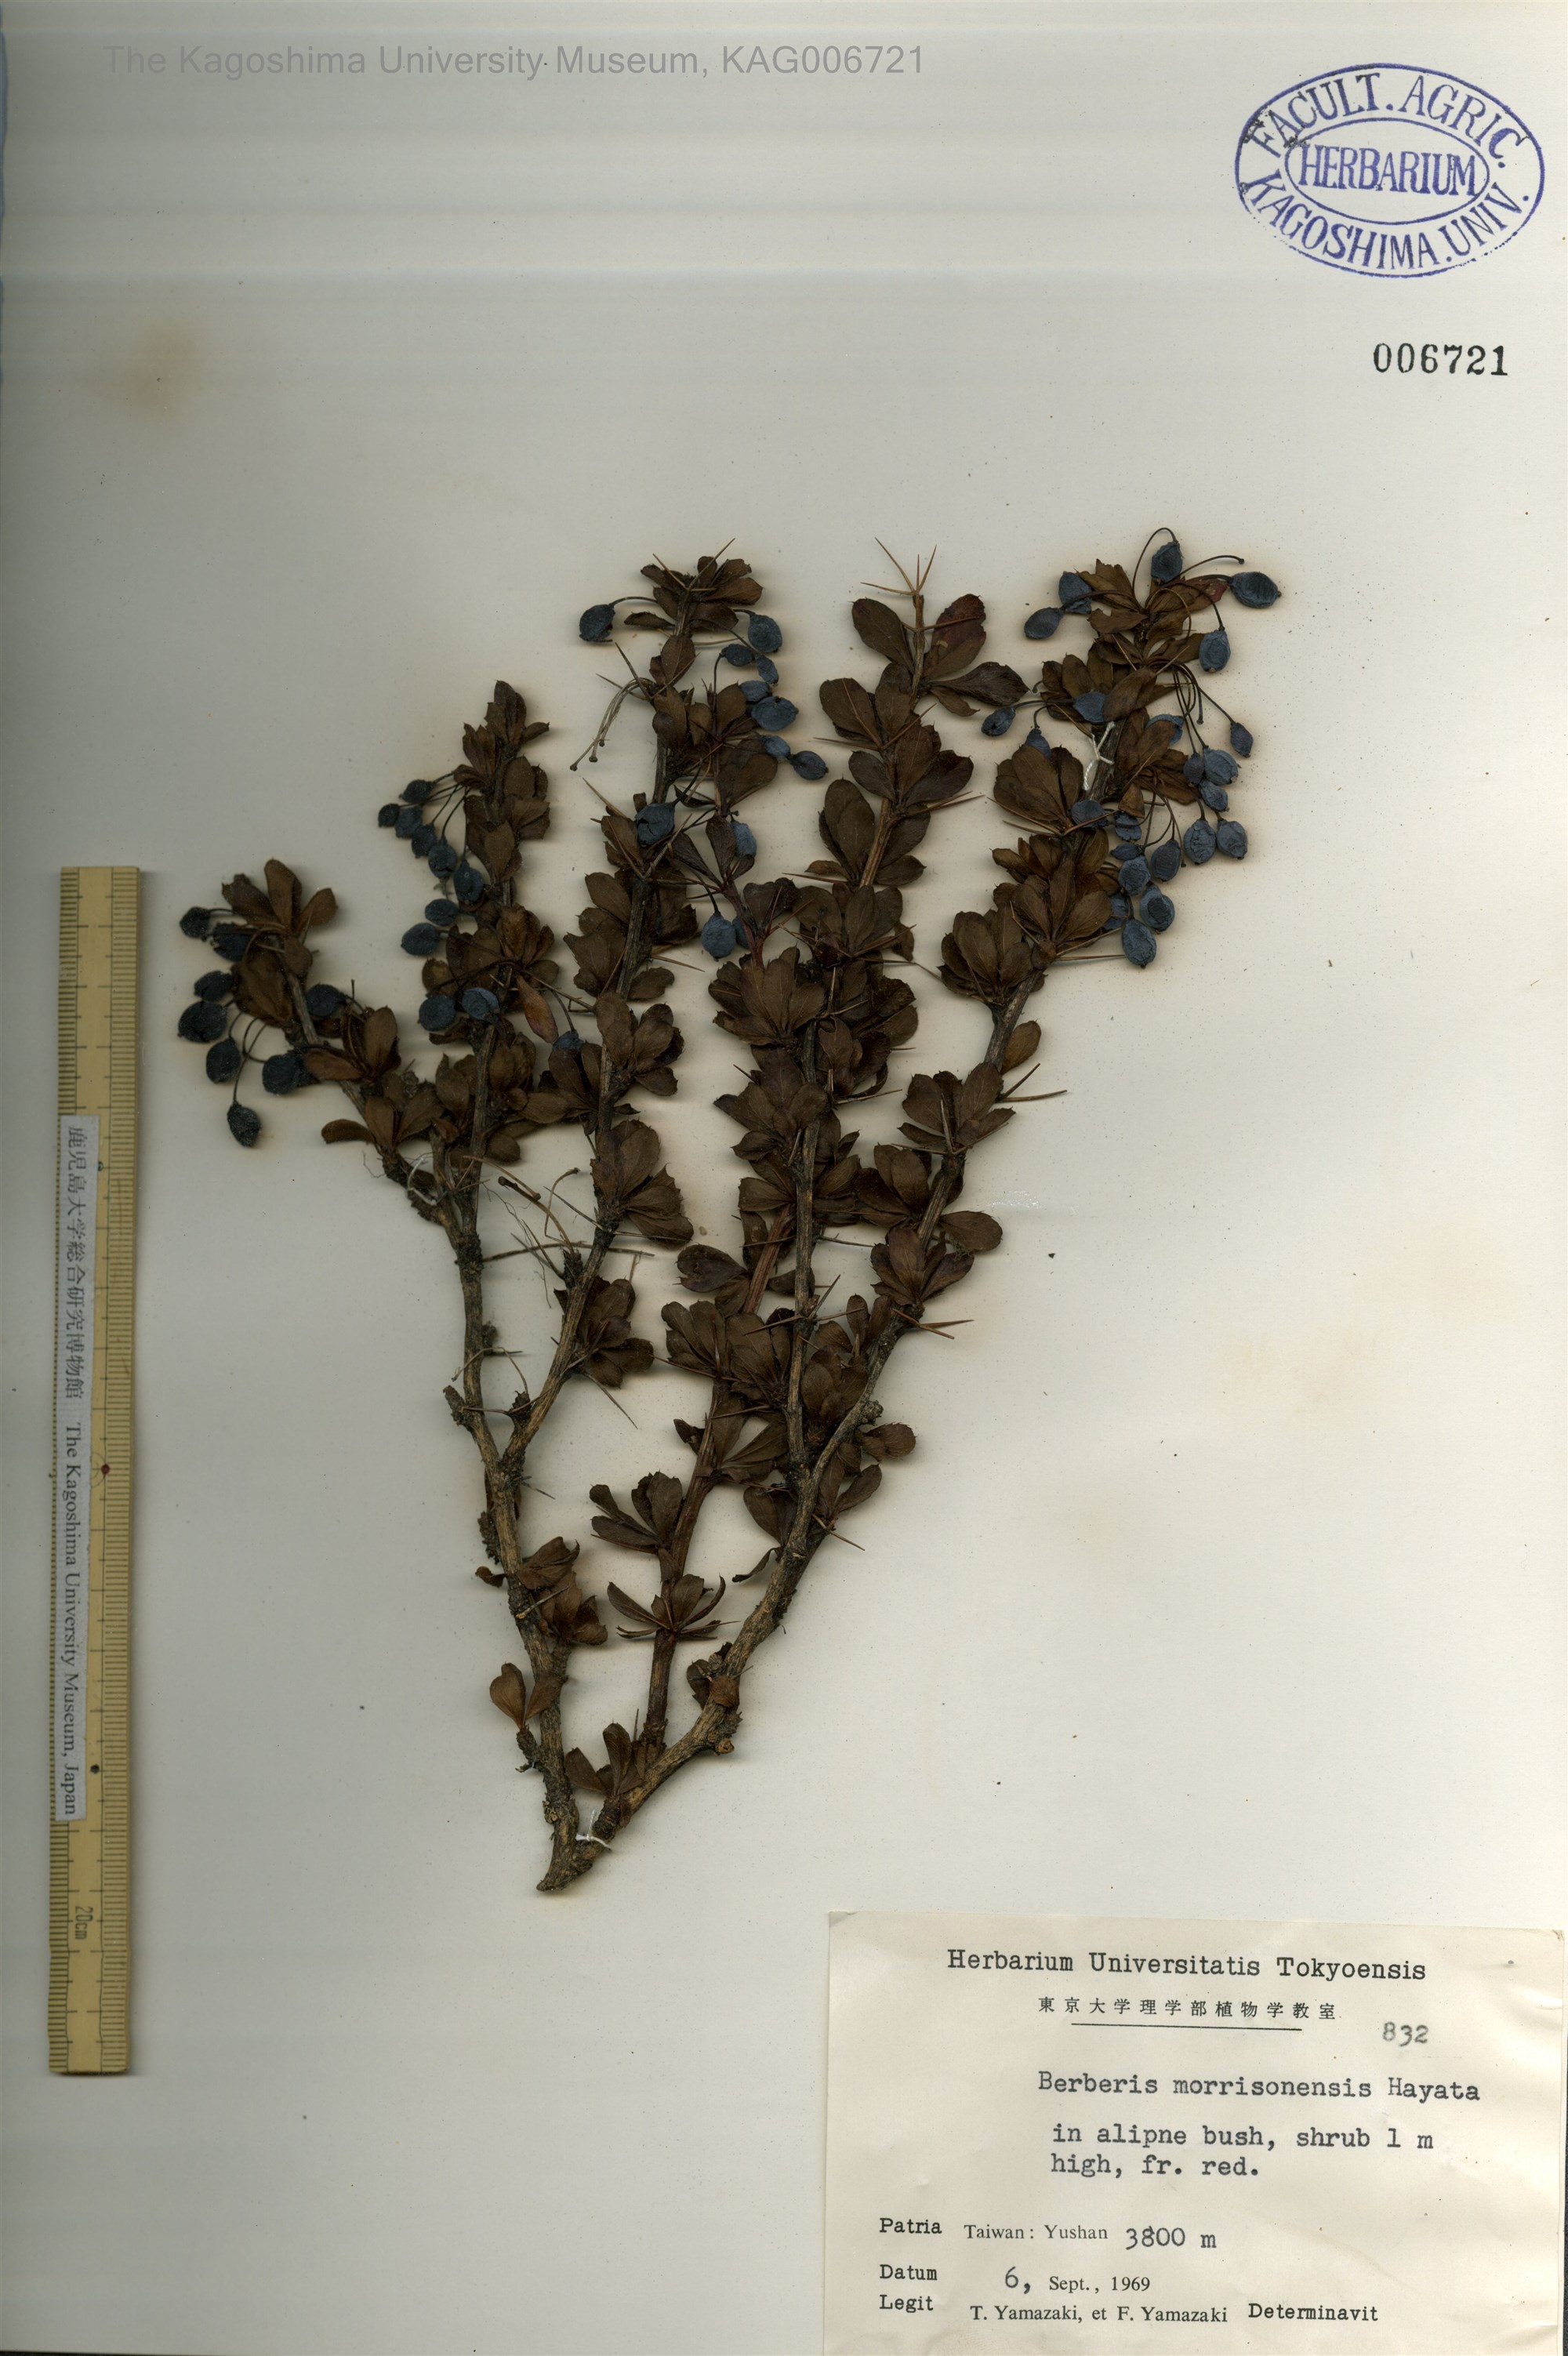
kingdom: Plantae
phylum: Tracheophyta
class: Magnoliopsida
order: Ranunculales
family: Berberidaceae
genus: Berberis
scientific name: Berberis morrisonensis
